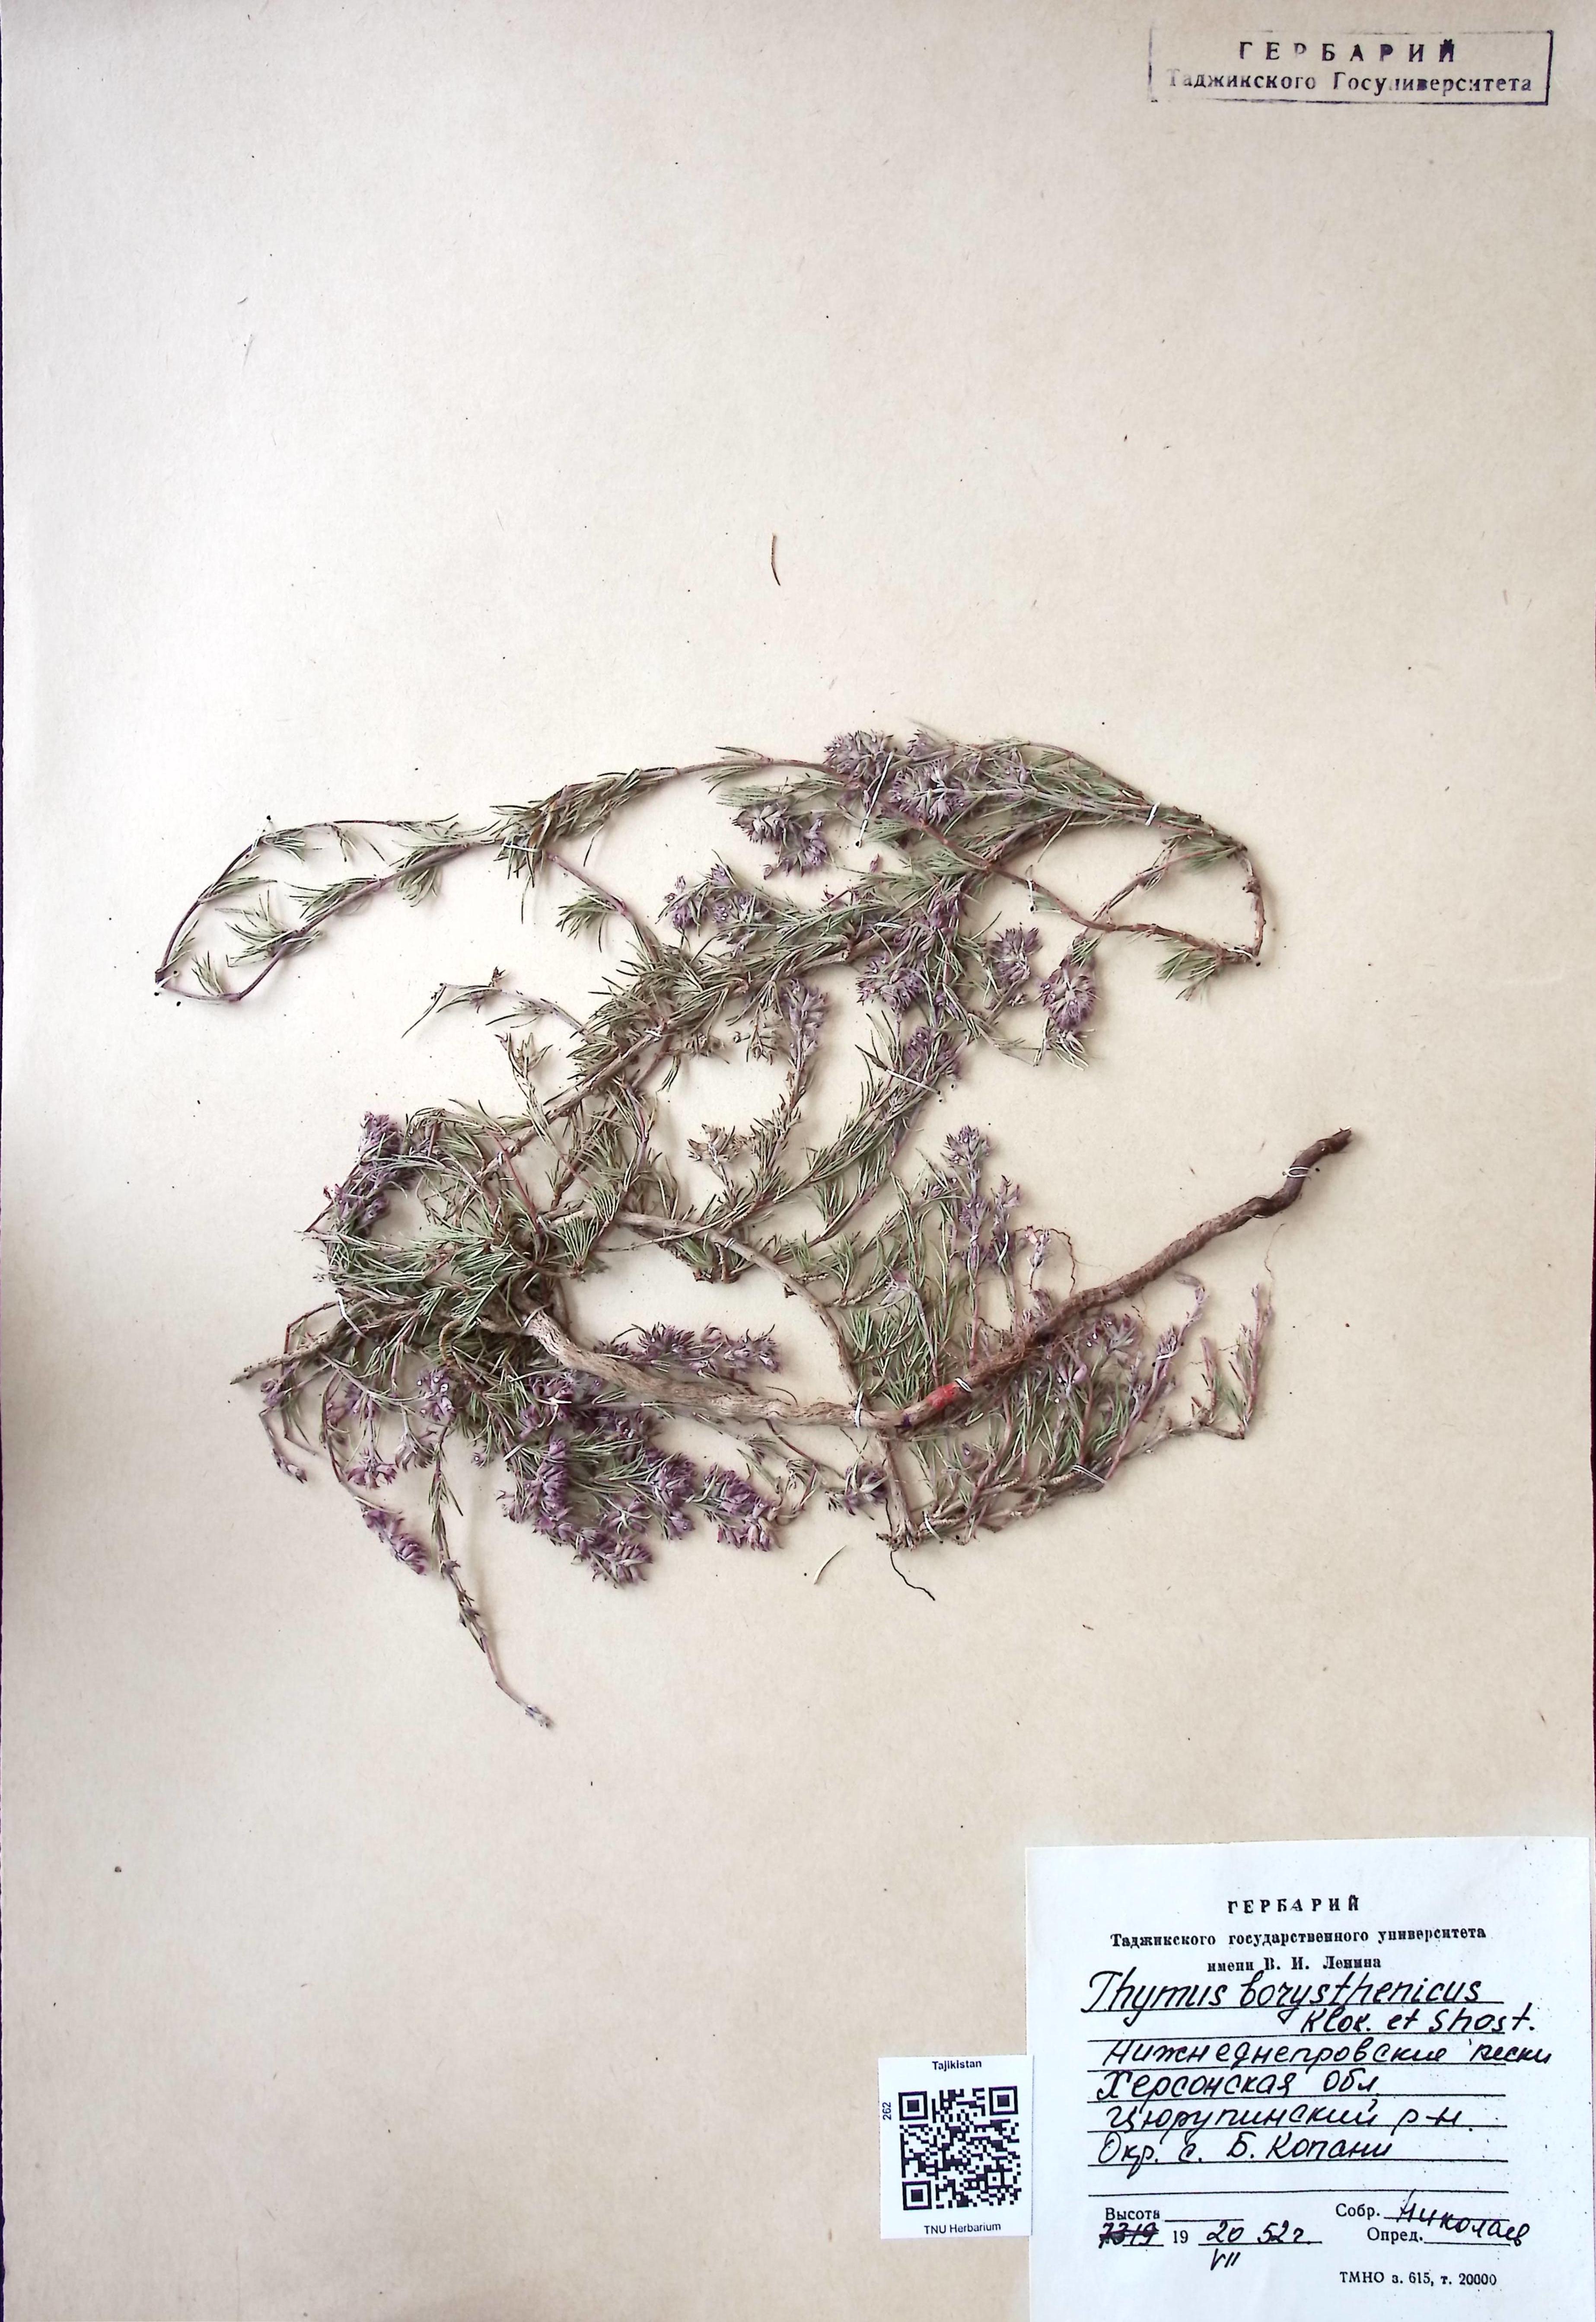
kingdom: Plantae
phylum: Tracheophyta
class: Magnoliopsida
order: Lamiales
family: Lamiaceae
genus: Thymus
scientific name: Thymus borysthenicus
